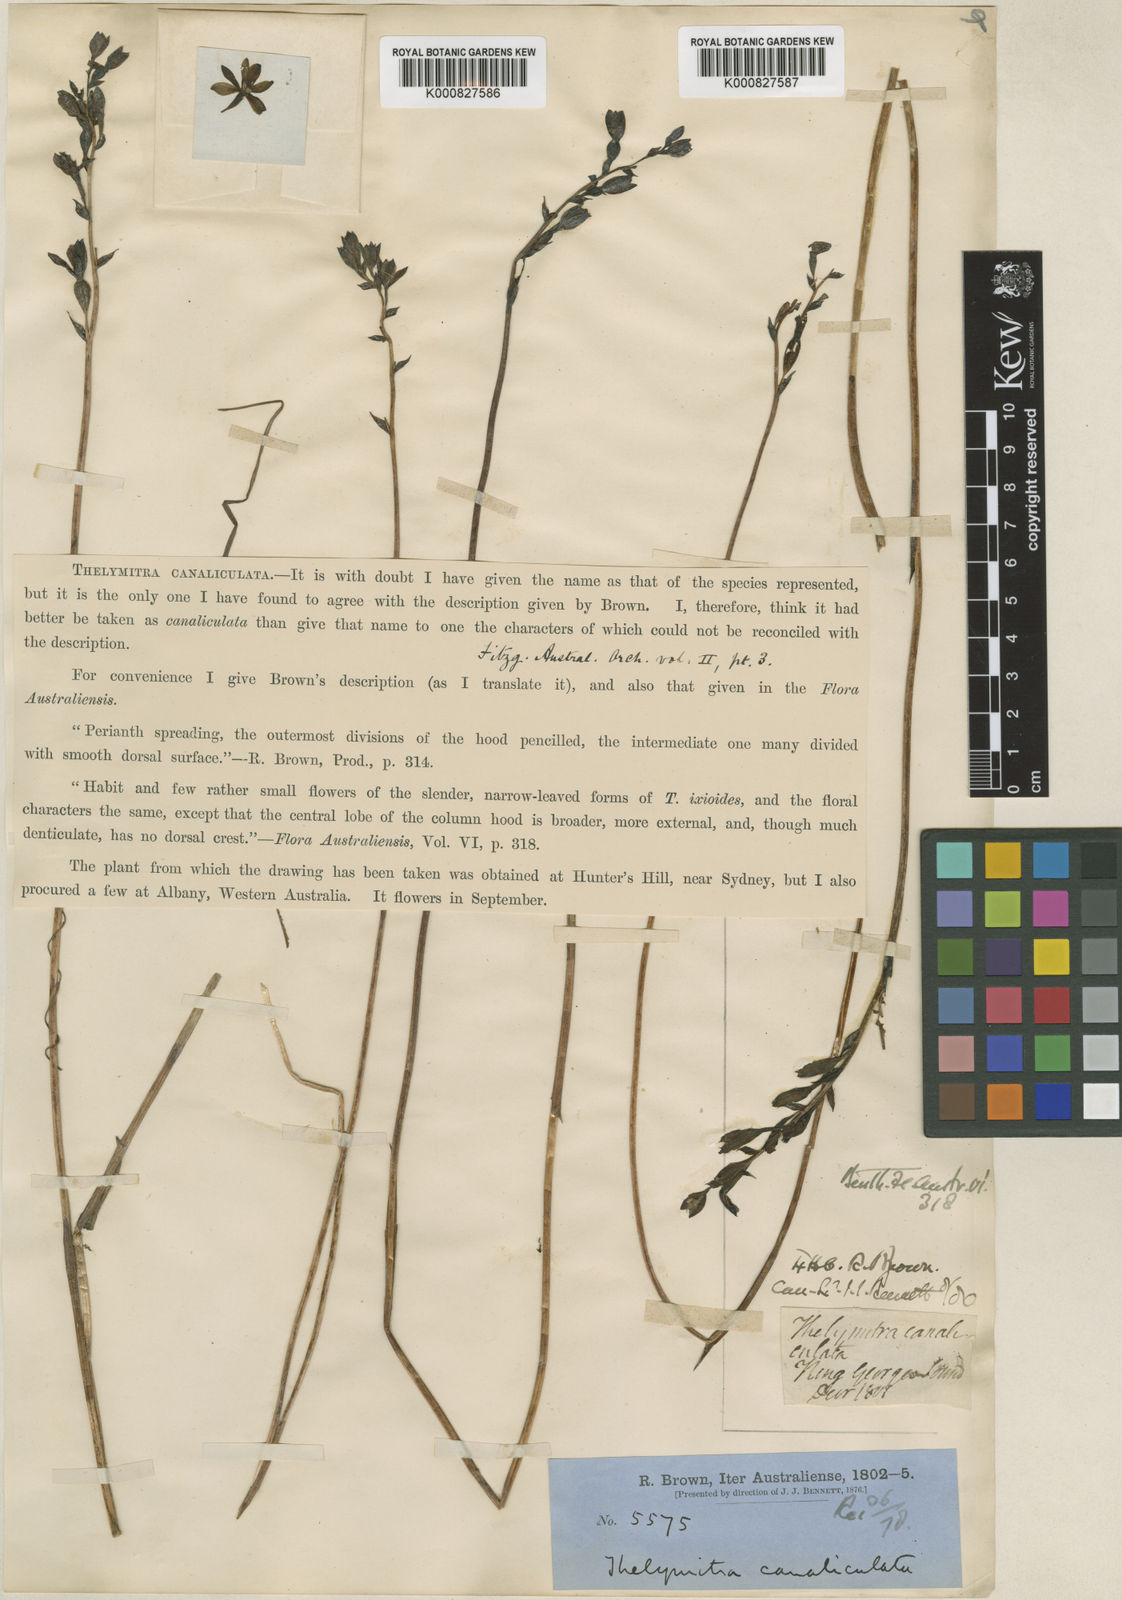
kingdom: Plantae
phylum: Tracheophyta
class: Liliopsida
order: Asparagales
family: Orchidaceae
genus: Thelymitra
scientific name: Thelymitra canaliculata
